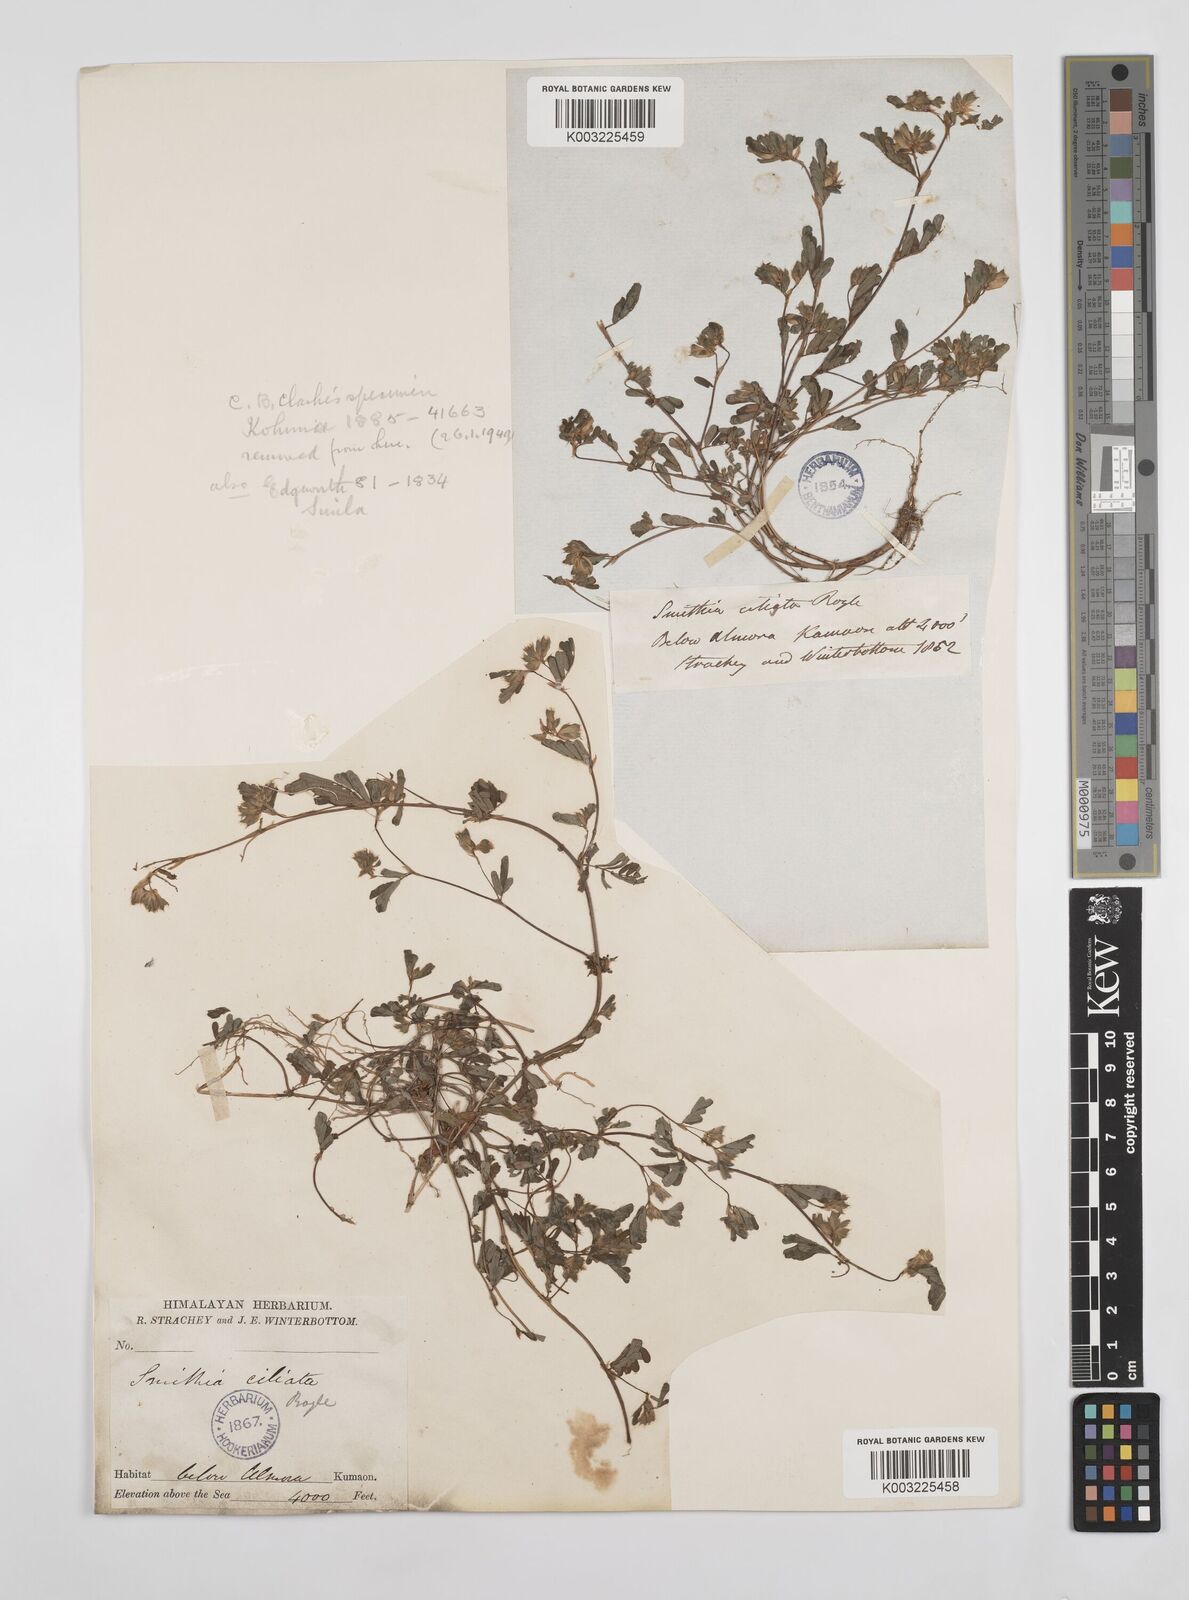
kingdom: Plantae
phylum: Tracheophyta
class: Magnoliopsida
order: Fabales
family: Fabaceae
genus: Smithia
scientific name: Smithia ciliata
